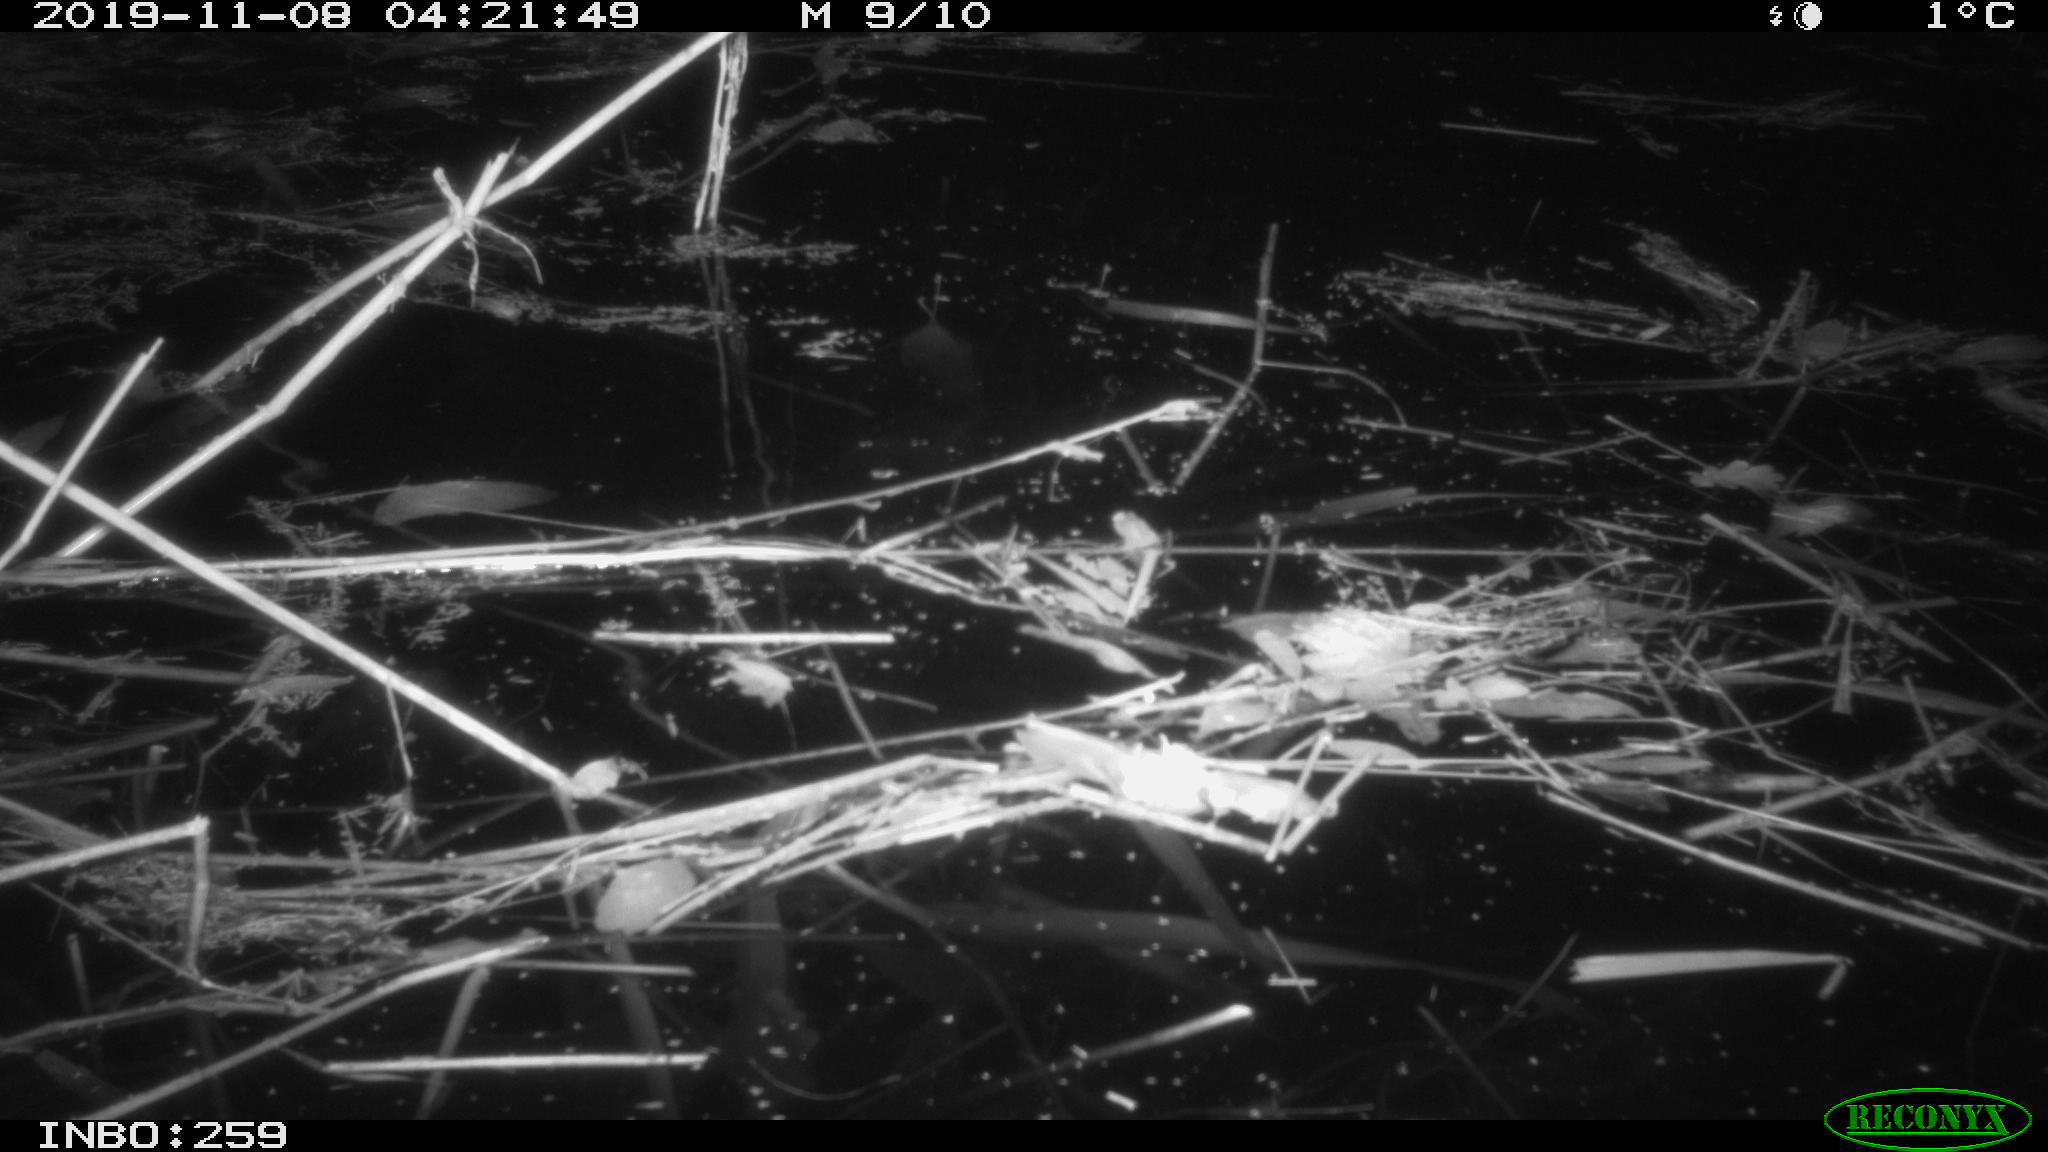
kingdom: Animalia
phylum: Chordata
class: Mammalia
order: Rodentia
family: Muridae
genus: Rattus
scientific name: Rattus norvegicus
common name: Brown rat
